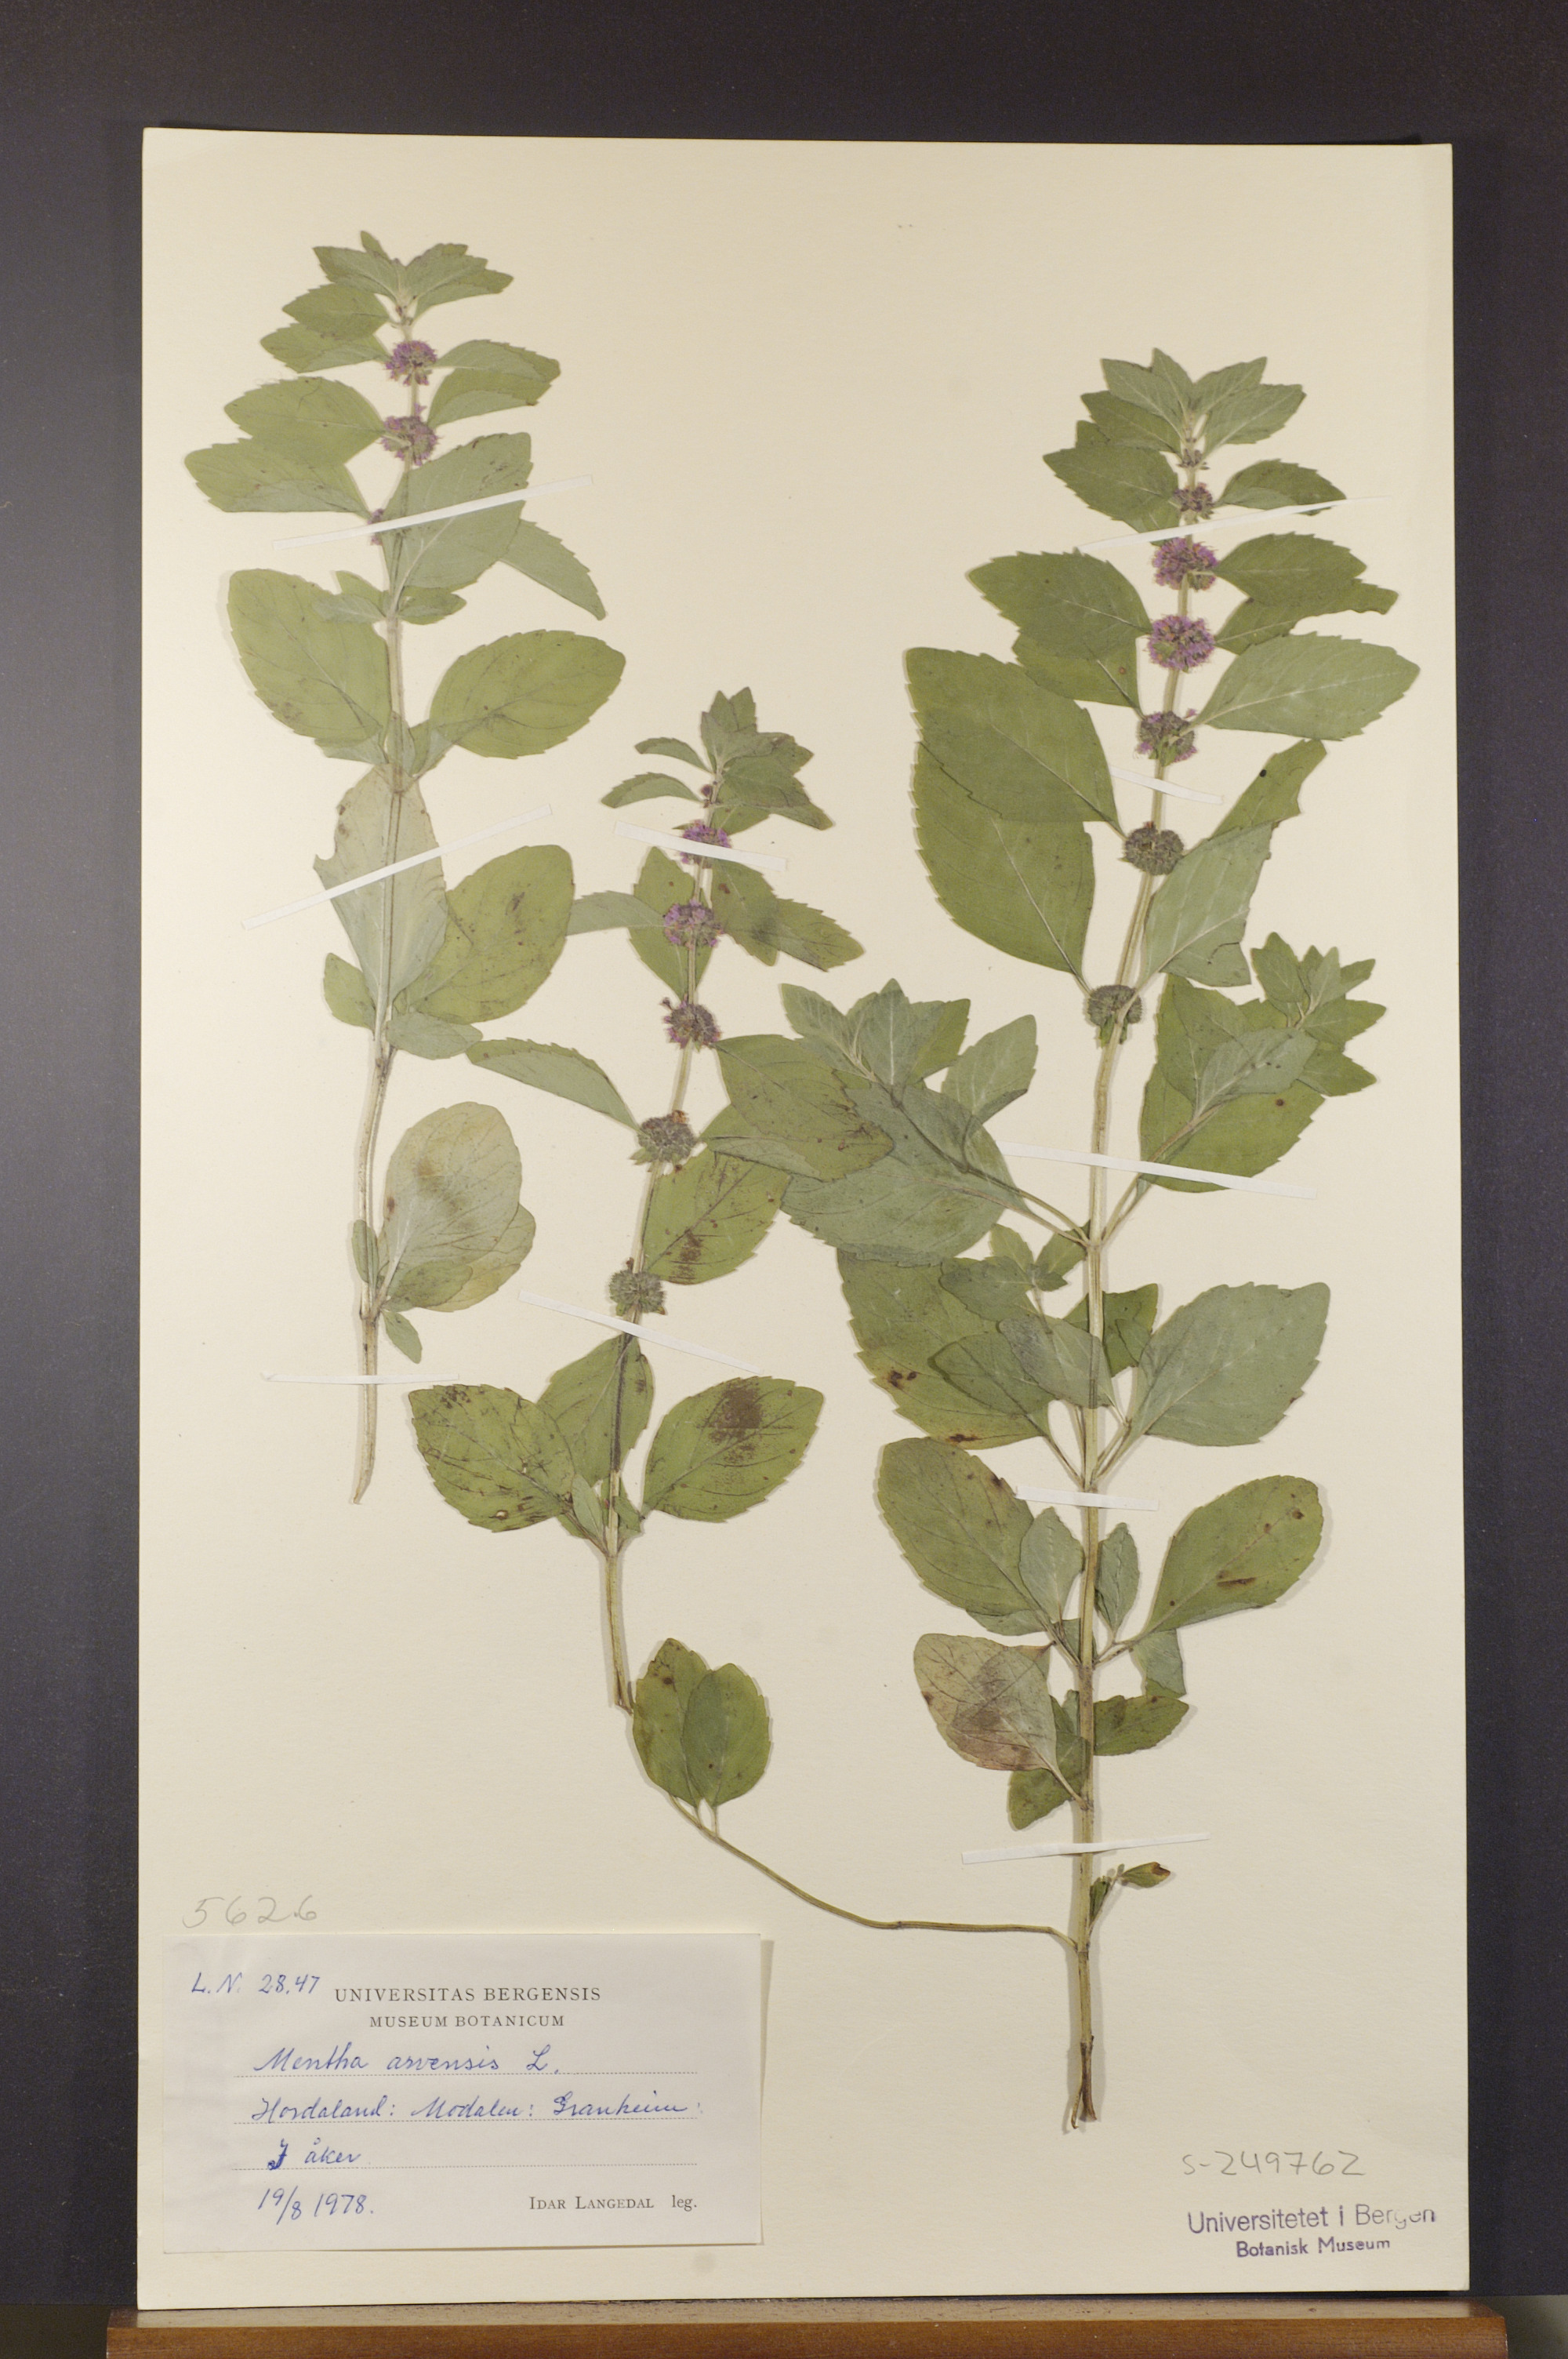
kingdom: Plantae
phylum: Tracheophyta
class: Magnoliopsida
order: Lamiales
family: Lamiaceae
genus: Mentha
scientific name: Mentha arvensis
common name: Corn mint
